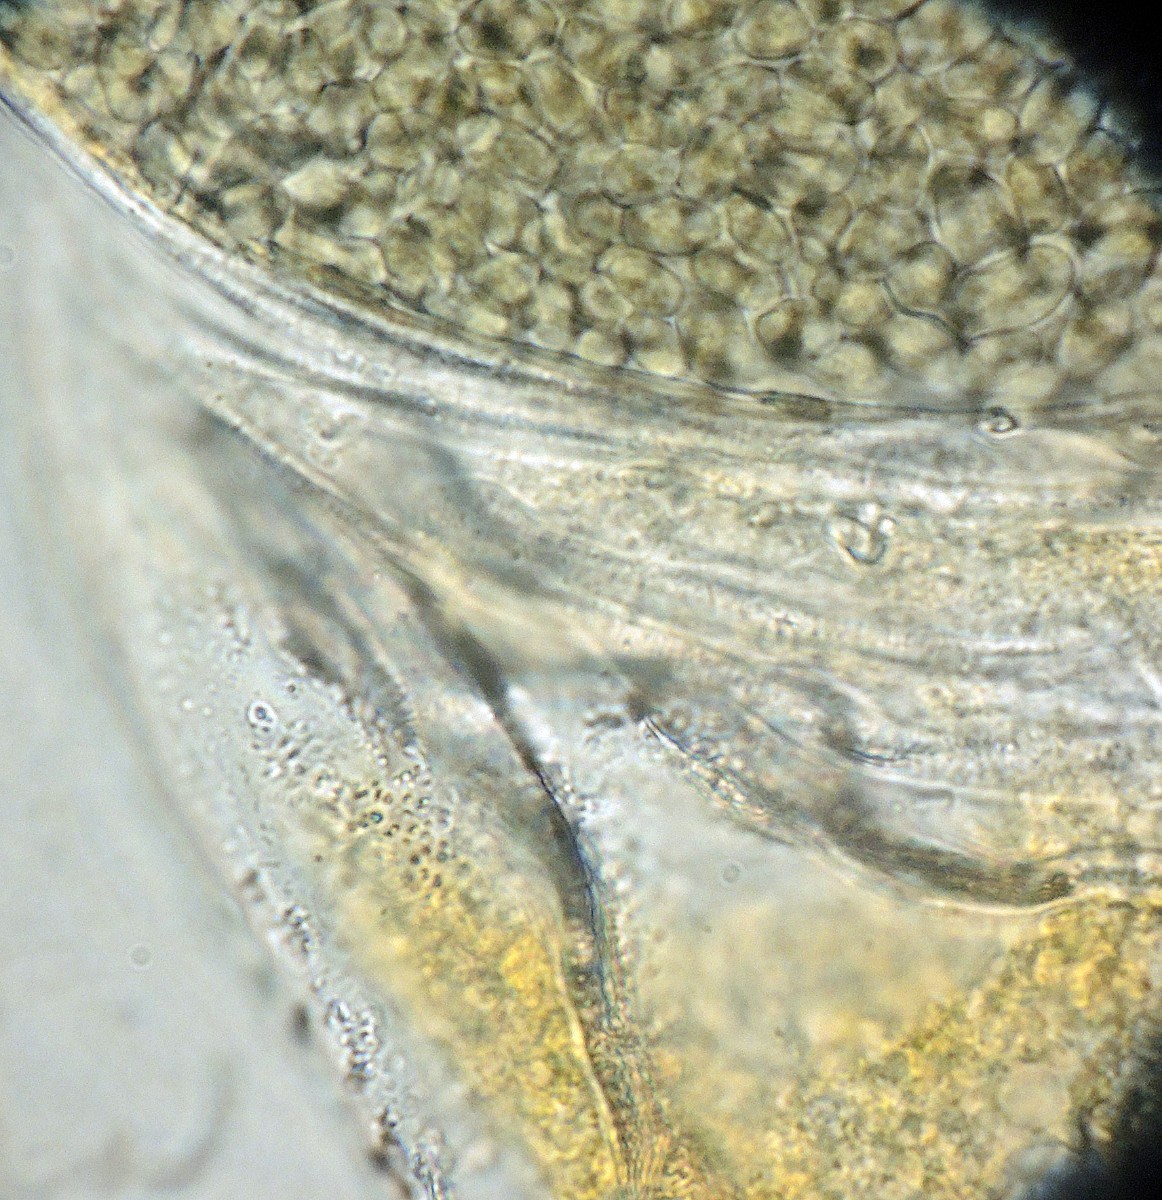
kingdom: Fungi
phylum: Mucoromycota
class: Mucoromycetes
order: Mucorales
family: Pilobolaceae
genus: Pilobolus
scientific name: Pilobolus
